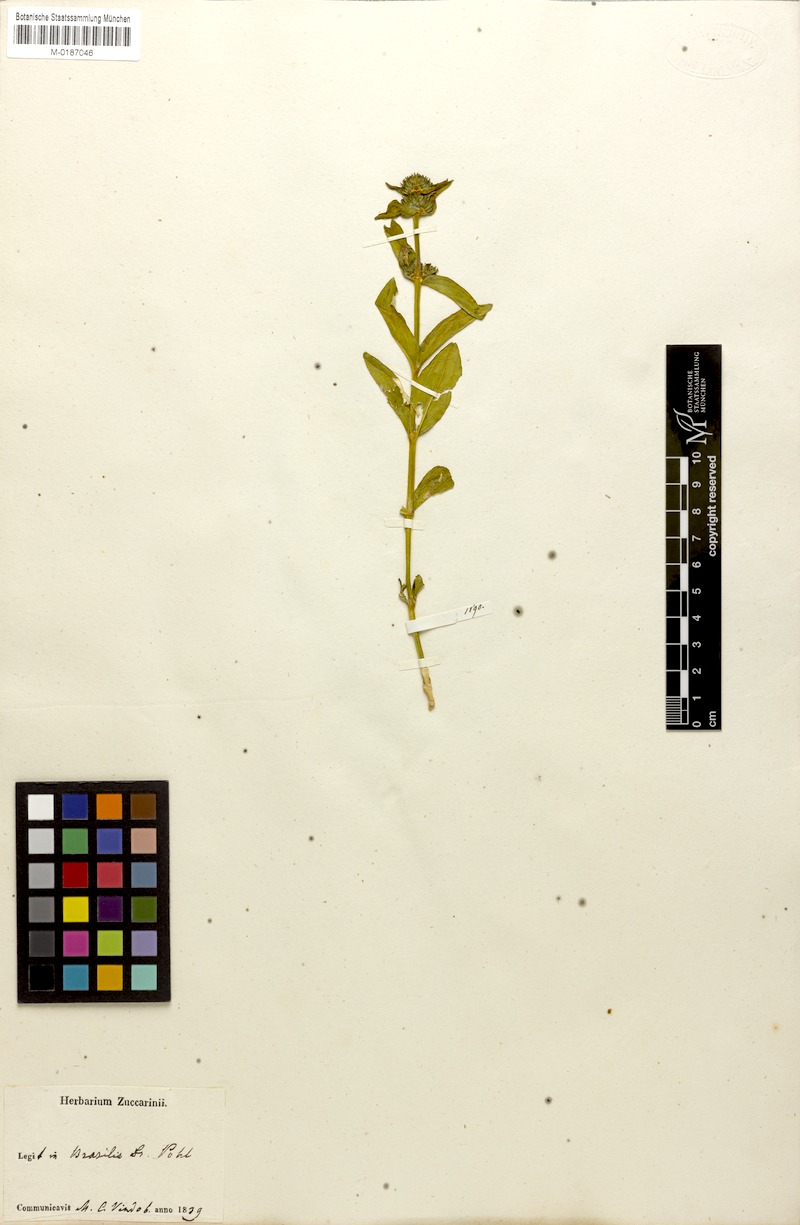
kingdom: Plantae
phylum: Tracheophyta
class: Magnoliopsida
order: Gentianales
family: Rubiaceae
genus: Spermacoce
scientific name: Spermacoce poaya
